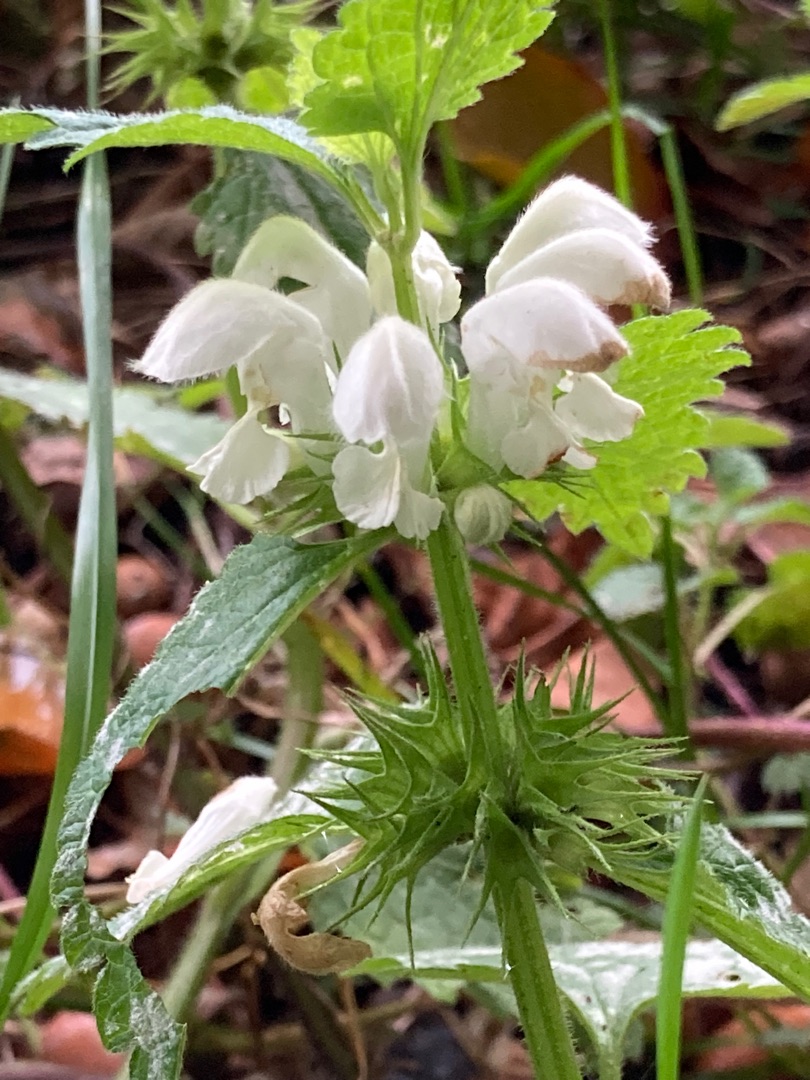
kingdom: Plantae
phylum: Tracheophyta
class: Magnoliopsida
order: Lamiales
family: Lamiaceae
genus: Lamium
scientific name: Lamium album
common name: Døvnælde
